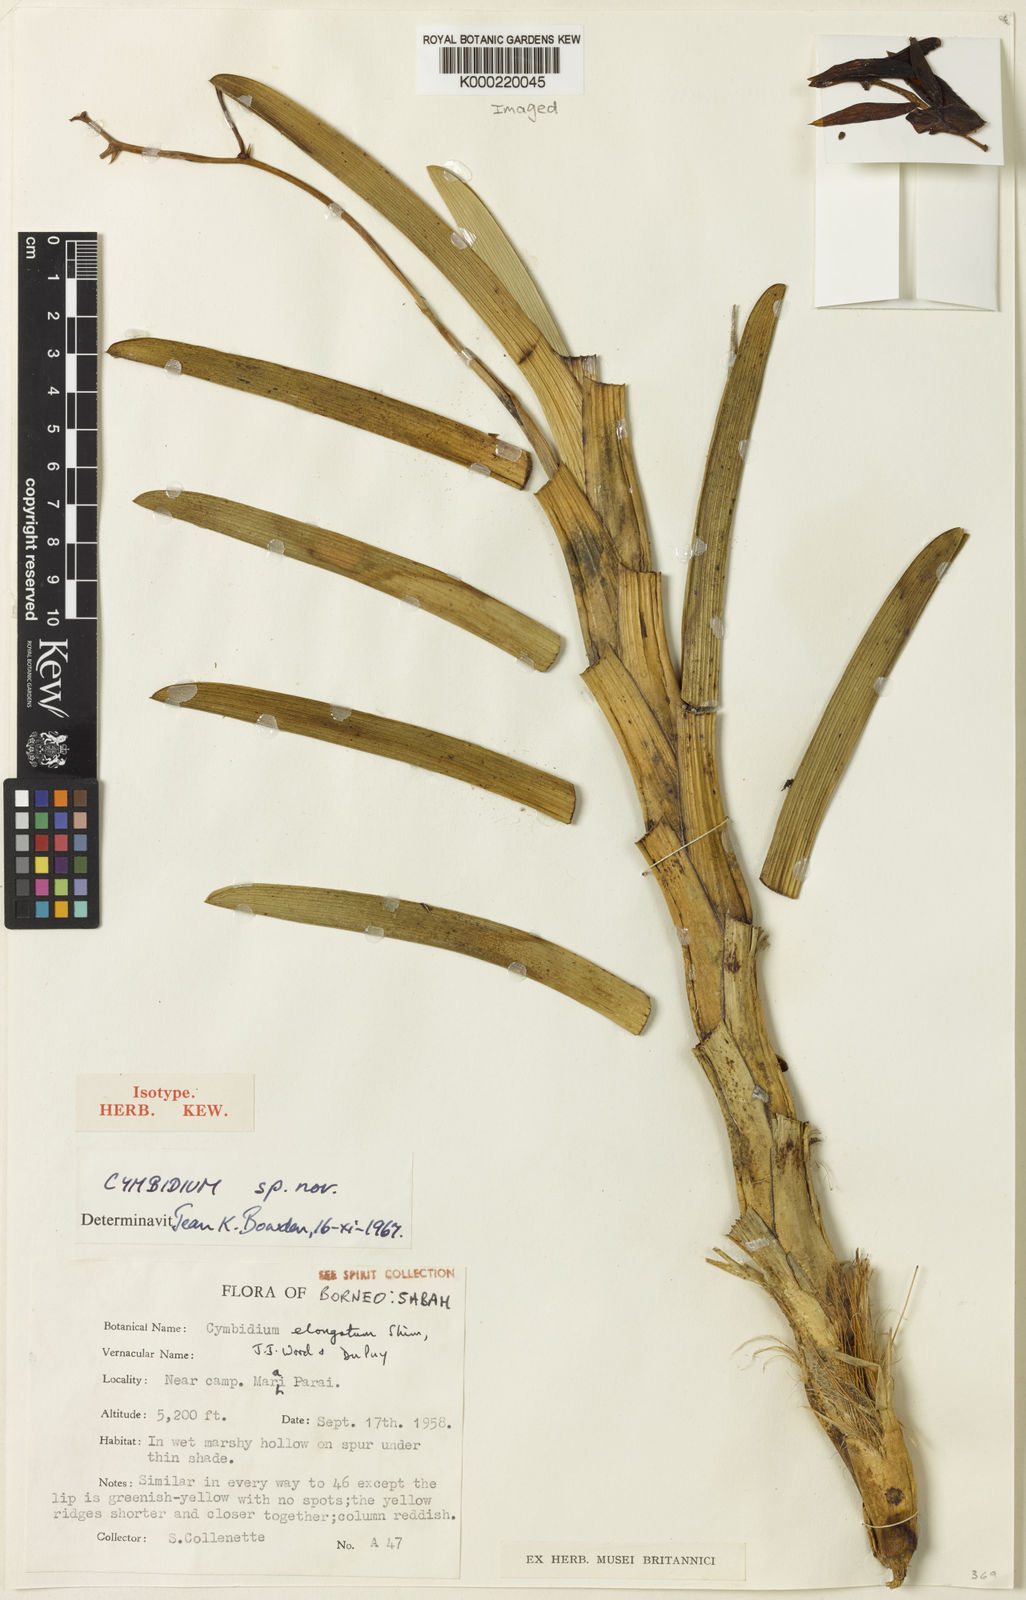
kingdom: Plantae
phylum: Tracheophyta
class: Liliopsida
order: Asparagales
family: Orchidaceae
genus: Cymbidium
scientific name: Cymbidium
